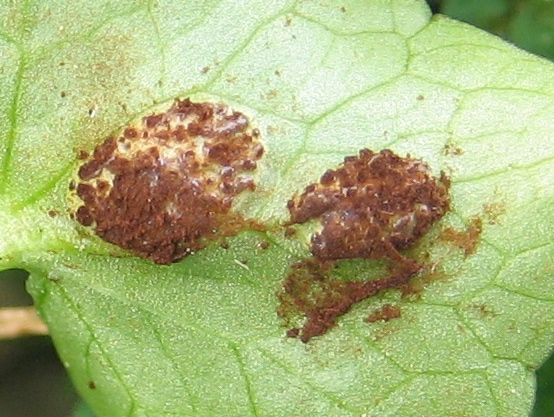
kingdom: Fungi
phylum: Basidiomycota
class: Pucciniomycetes
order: Pucciniales
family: Pucciniaceae
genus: Uromyces
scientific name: Uromyces ficariae
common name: vorterod-encellerust
